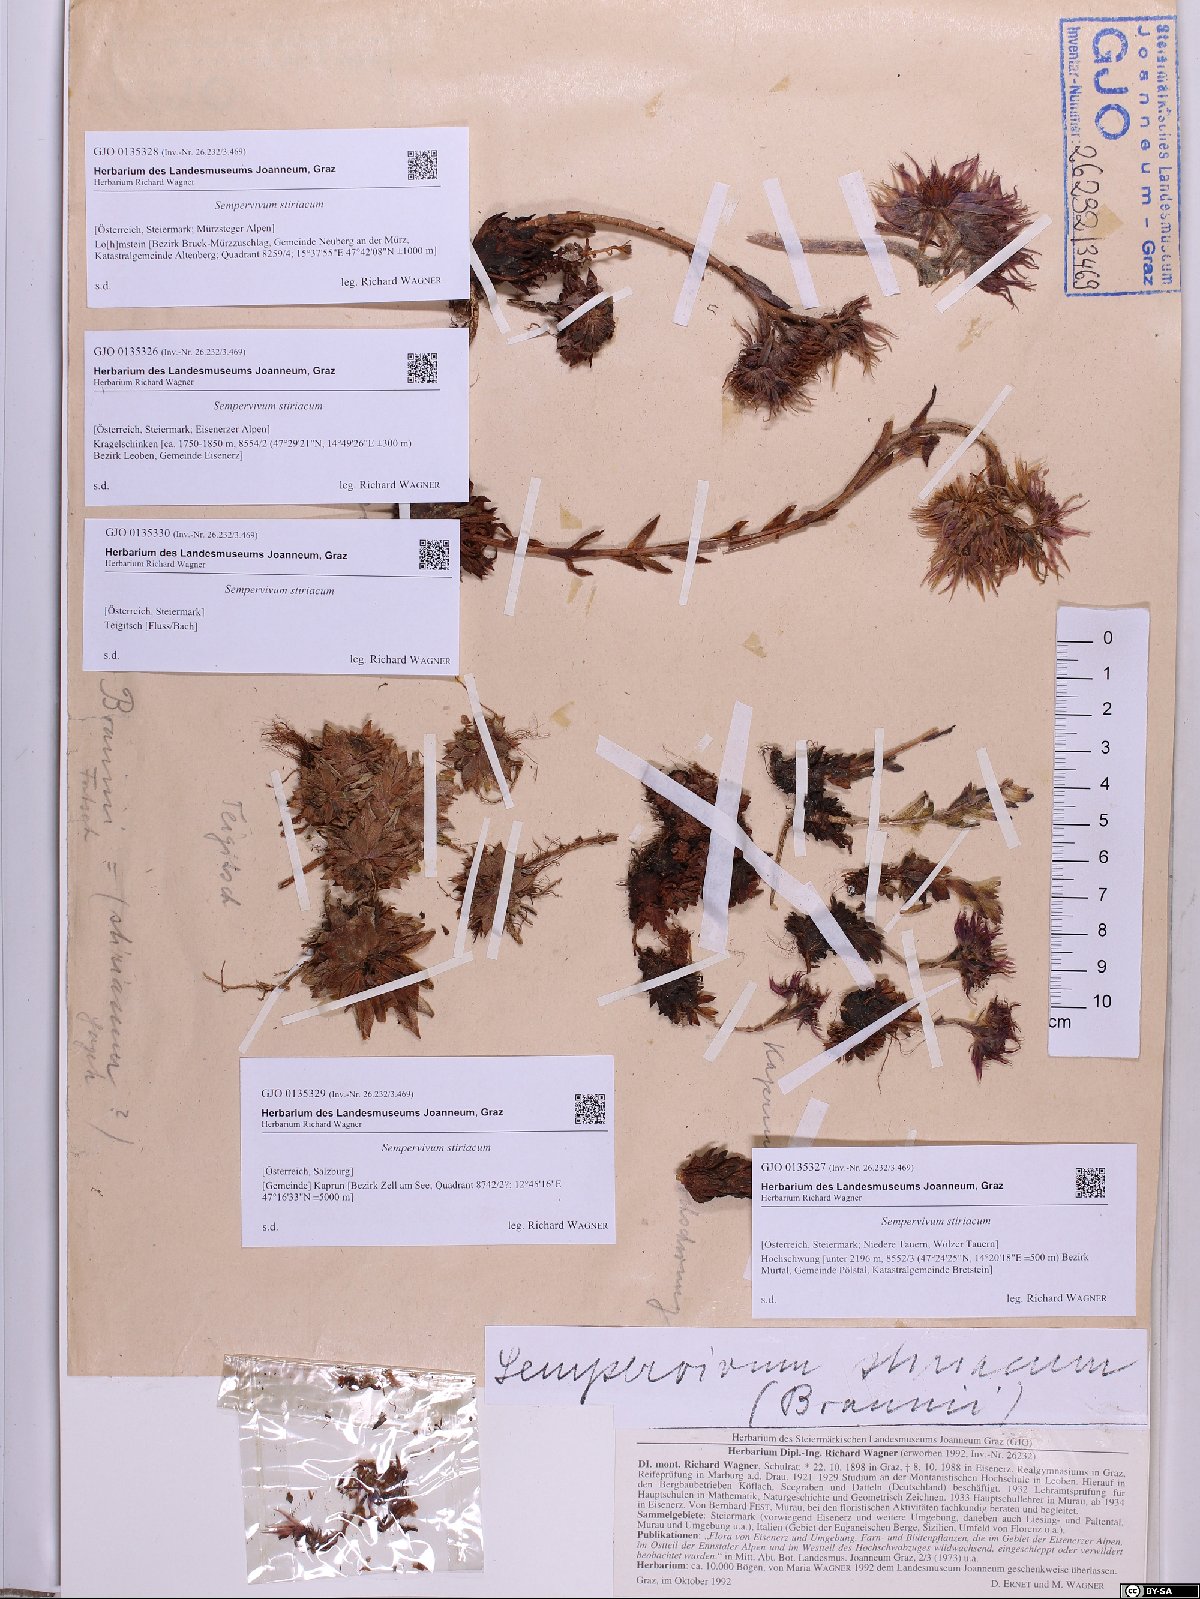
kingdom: Plantae
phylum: Tracheophyta
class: Magnoliopsida
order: Saxifragales
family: Crassulaceae
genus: Sempervivum
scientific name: Sempervivum montanum
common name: Mountain house-leek
